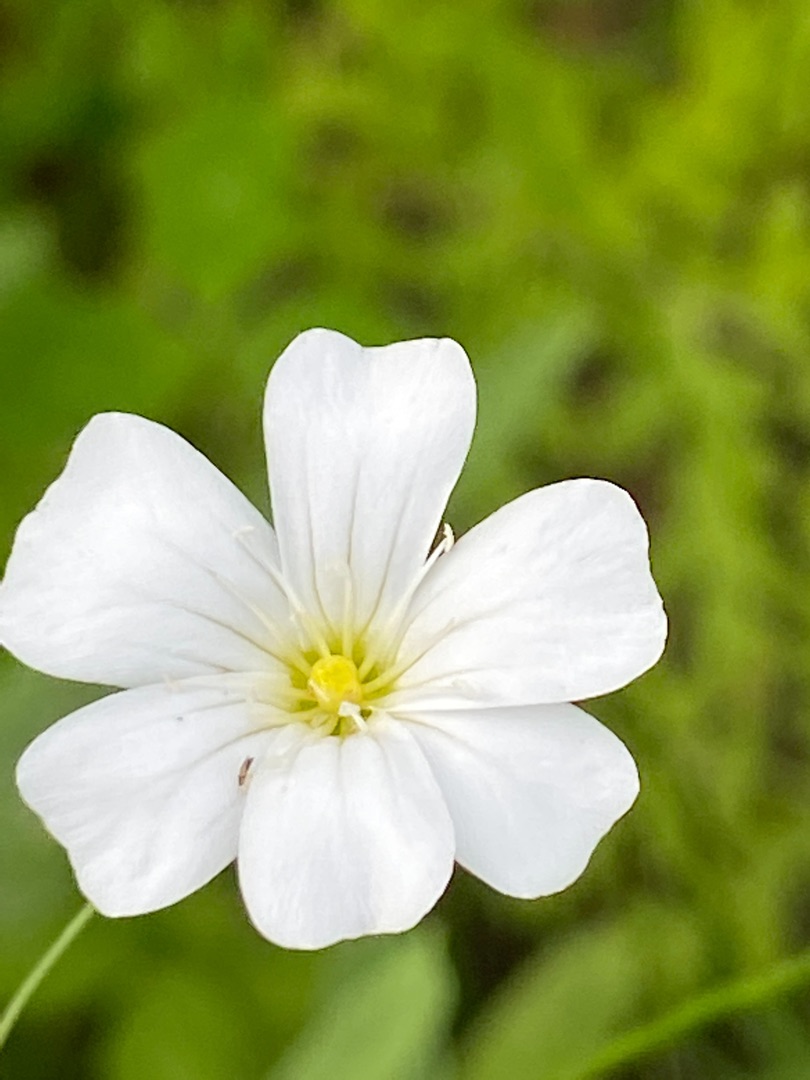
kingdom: Plantae
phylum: Tracheophyta
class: Magnoliopsida
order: Caryophyllales
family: Caryophyllaceae
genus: Gypsophila
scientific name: Gypsophila elegans
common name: Enårig brudeslør
